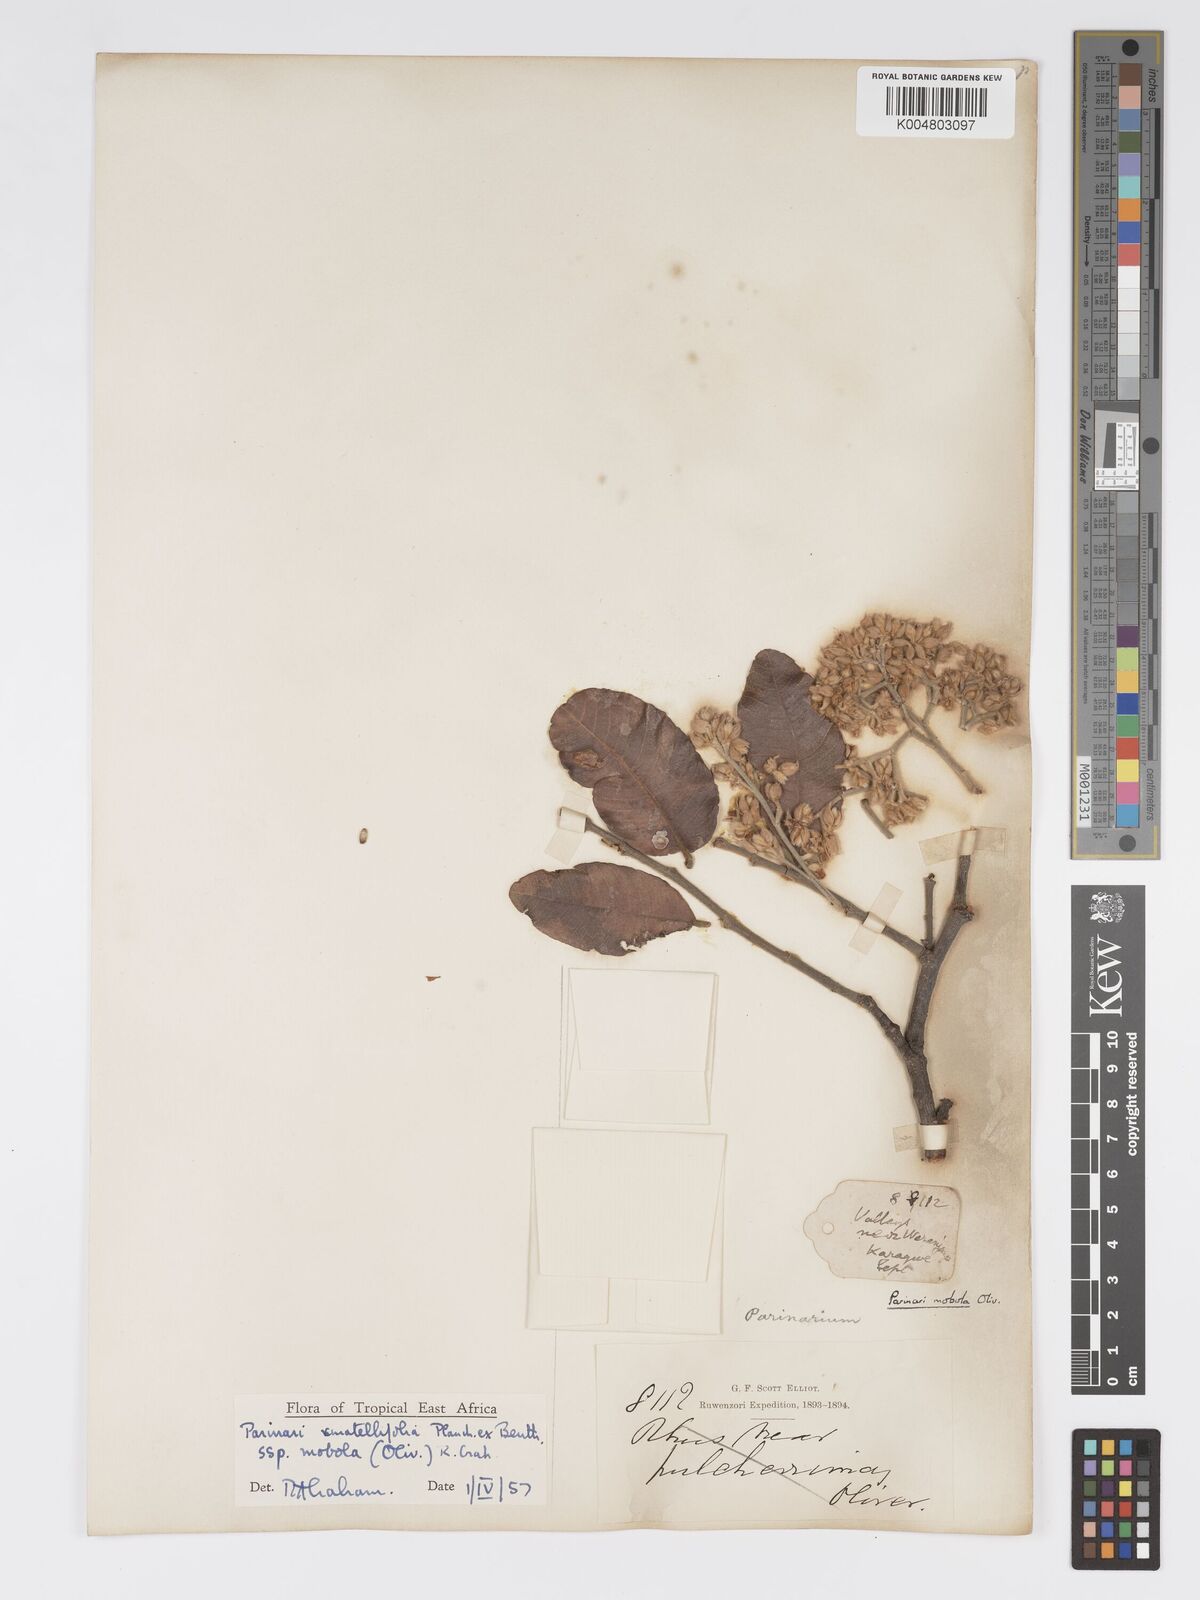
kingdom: Plantae
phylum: Tracheophyta
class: Magnoliopsida
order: Malpighiales
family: Chrysobalanaceae
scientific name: Chrysobalanaceae
